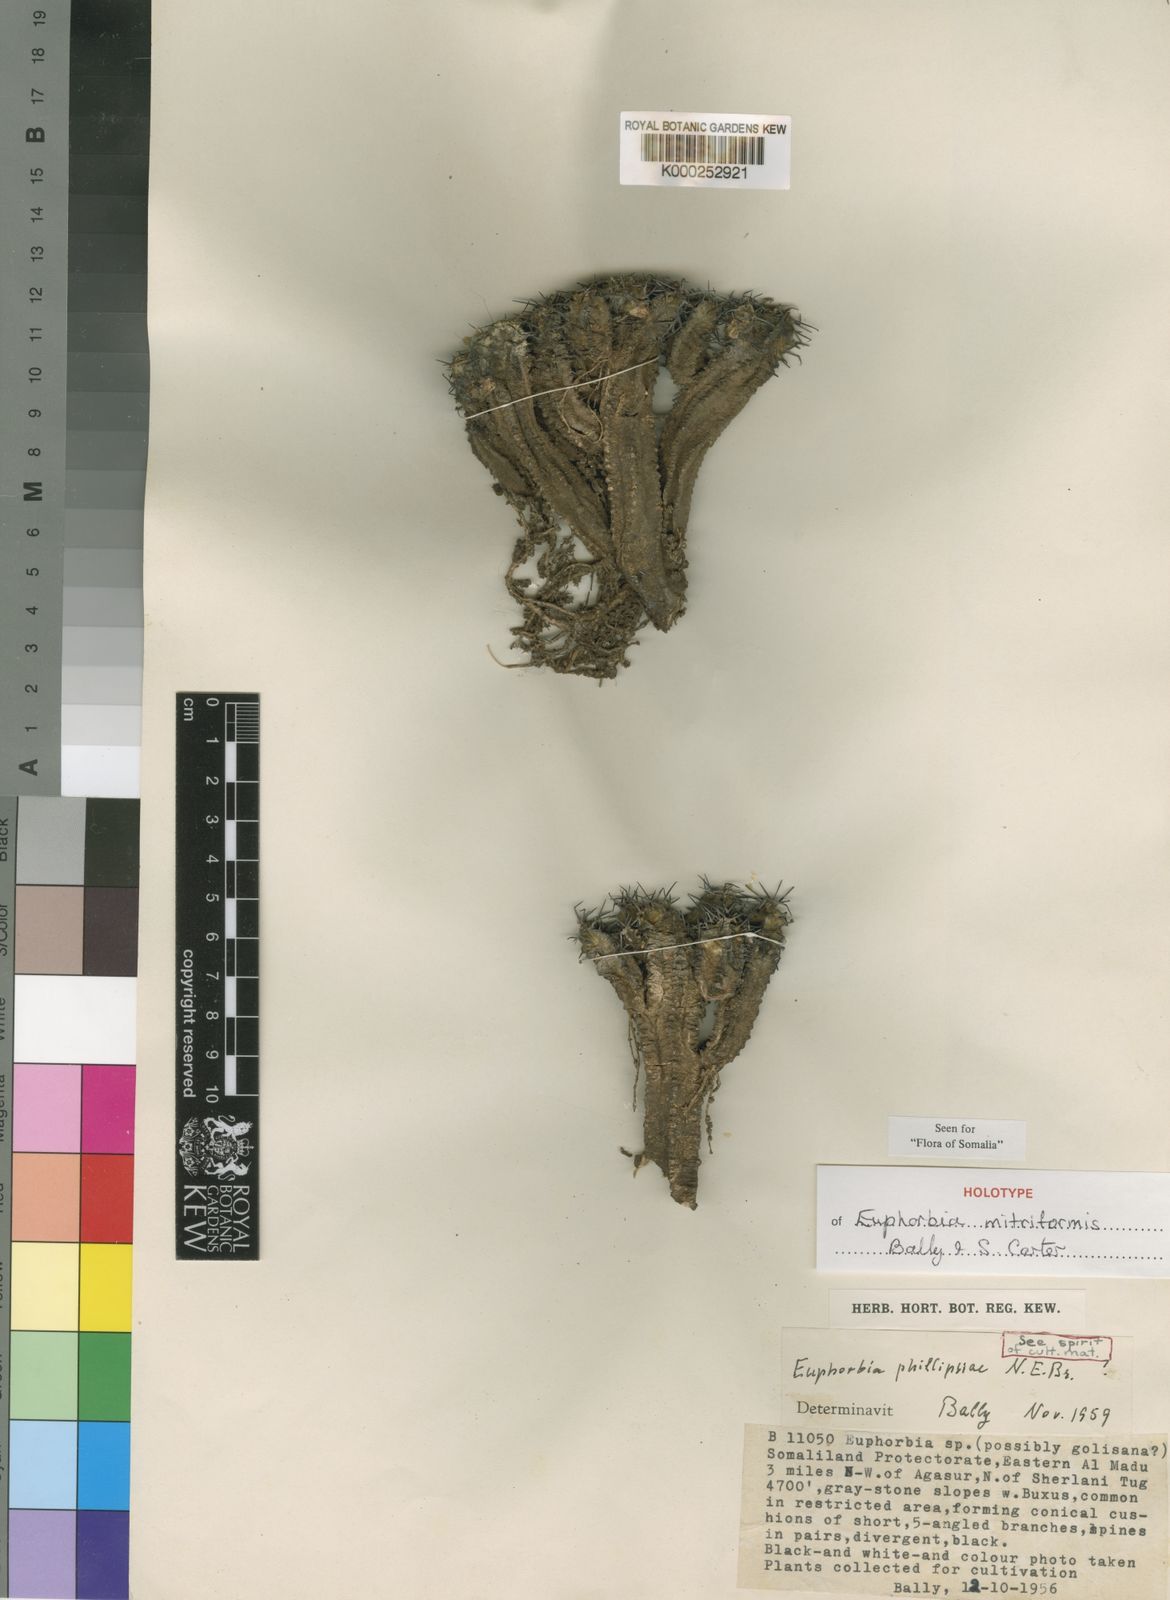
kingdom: Plantae
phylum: Tracheophyta
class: Magnoliopsida
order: Malpighiales
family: Euphorbiaceae
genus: Euphorbia
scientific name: Euphorbia mitriformis
